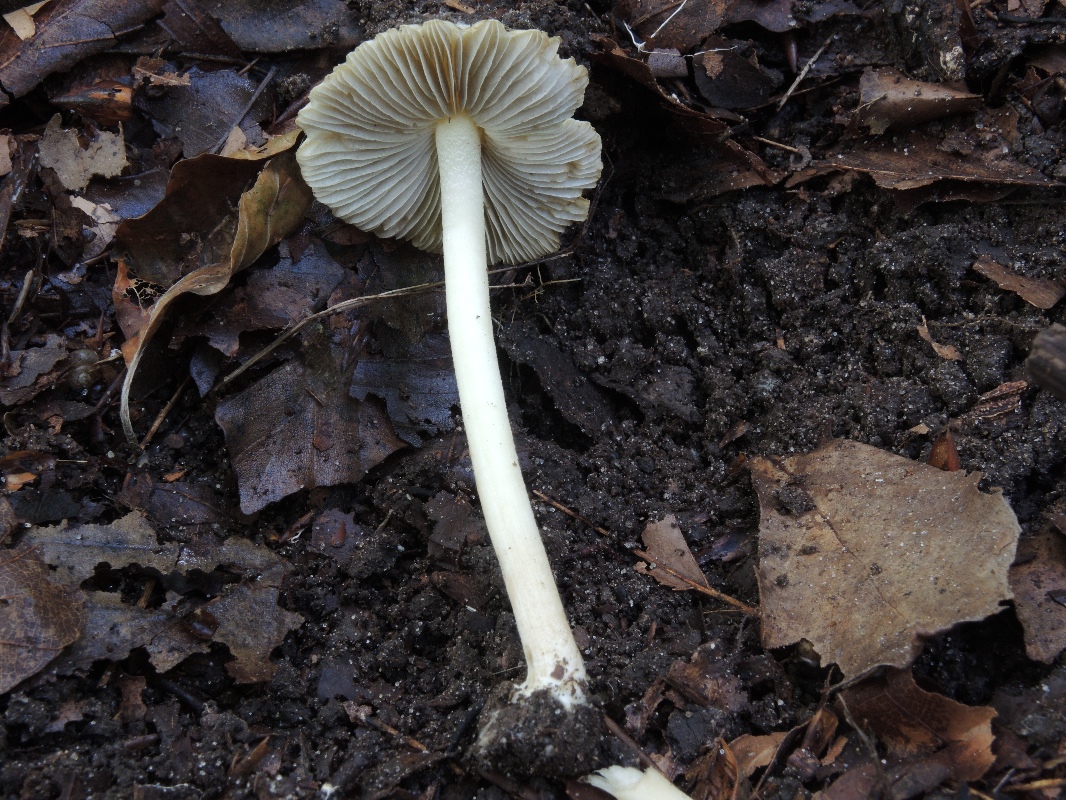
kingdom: Fungi
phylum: Basidiomycota
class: Agaricomycetes
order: Agaricales
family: Inocybaceae
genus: Inocybe
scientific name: Inocybe
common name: trævlhat
